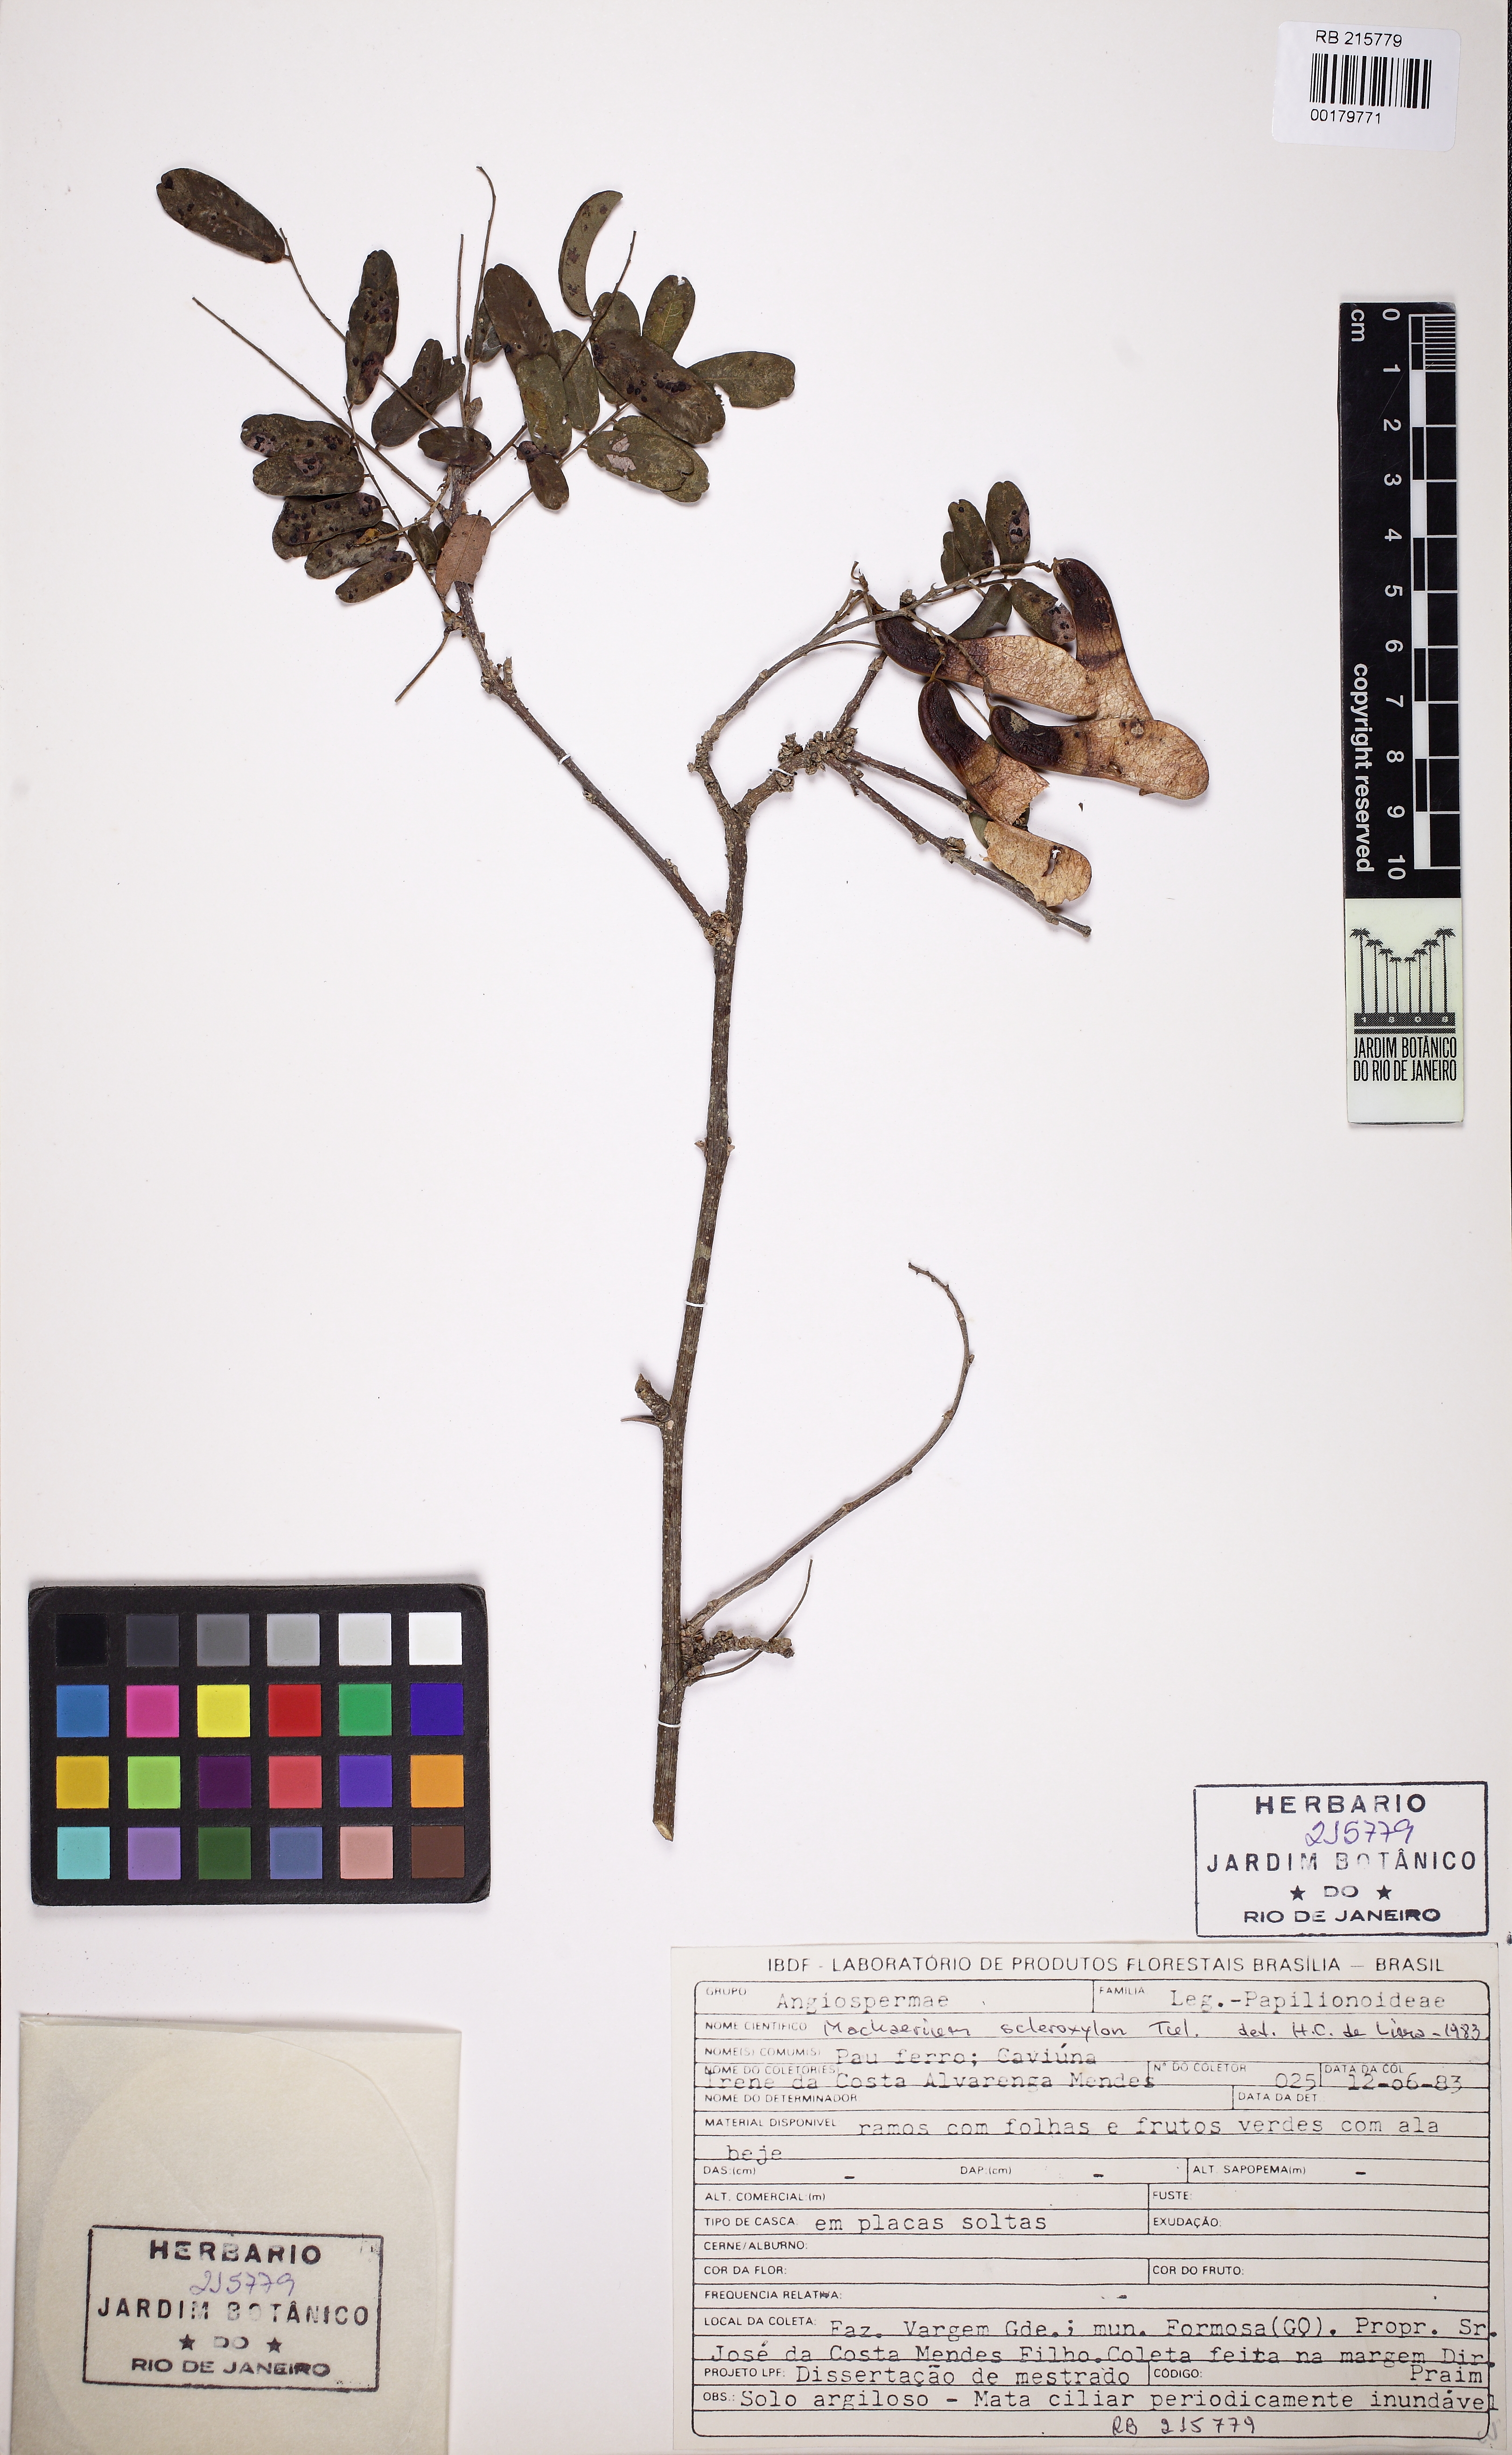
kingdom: Plantae
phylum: Tracheophyta
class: Magnoliopsida
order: Fabales
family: Fabaceae
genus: Machaerium
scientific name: Machaerium scleroxylon
